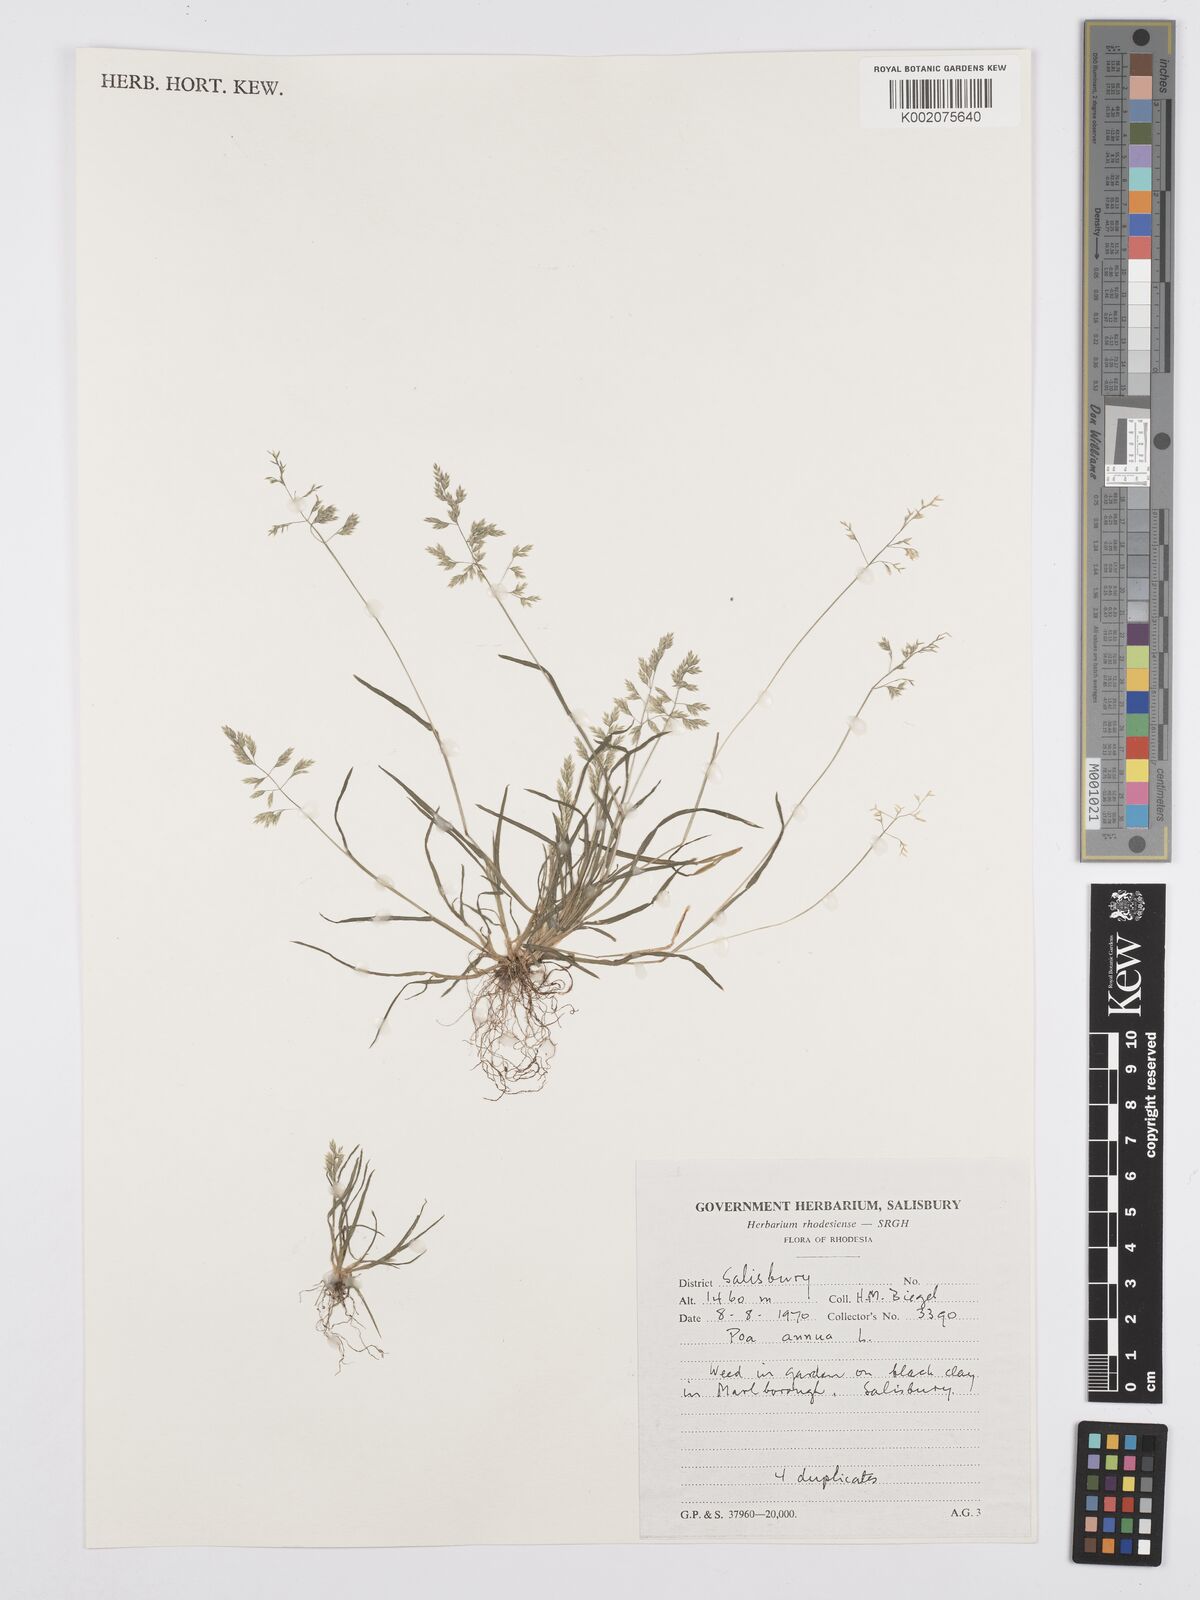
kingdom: Plantae
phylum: Tracheophyta
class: Liliopsida
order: Poales
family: Poaceae
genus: Poa
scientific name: Poa annua
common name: Annual bluegrass
